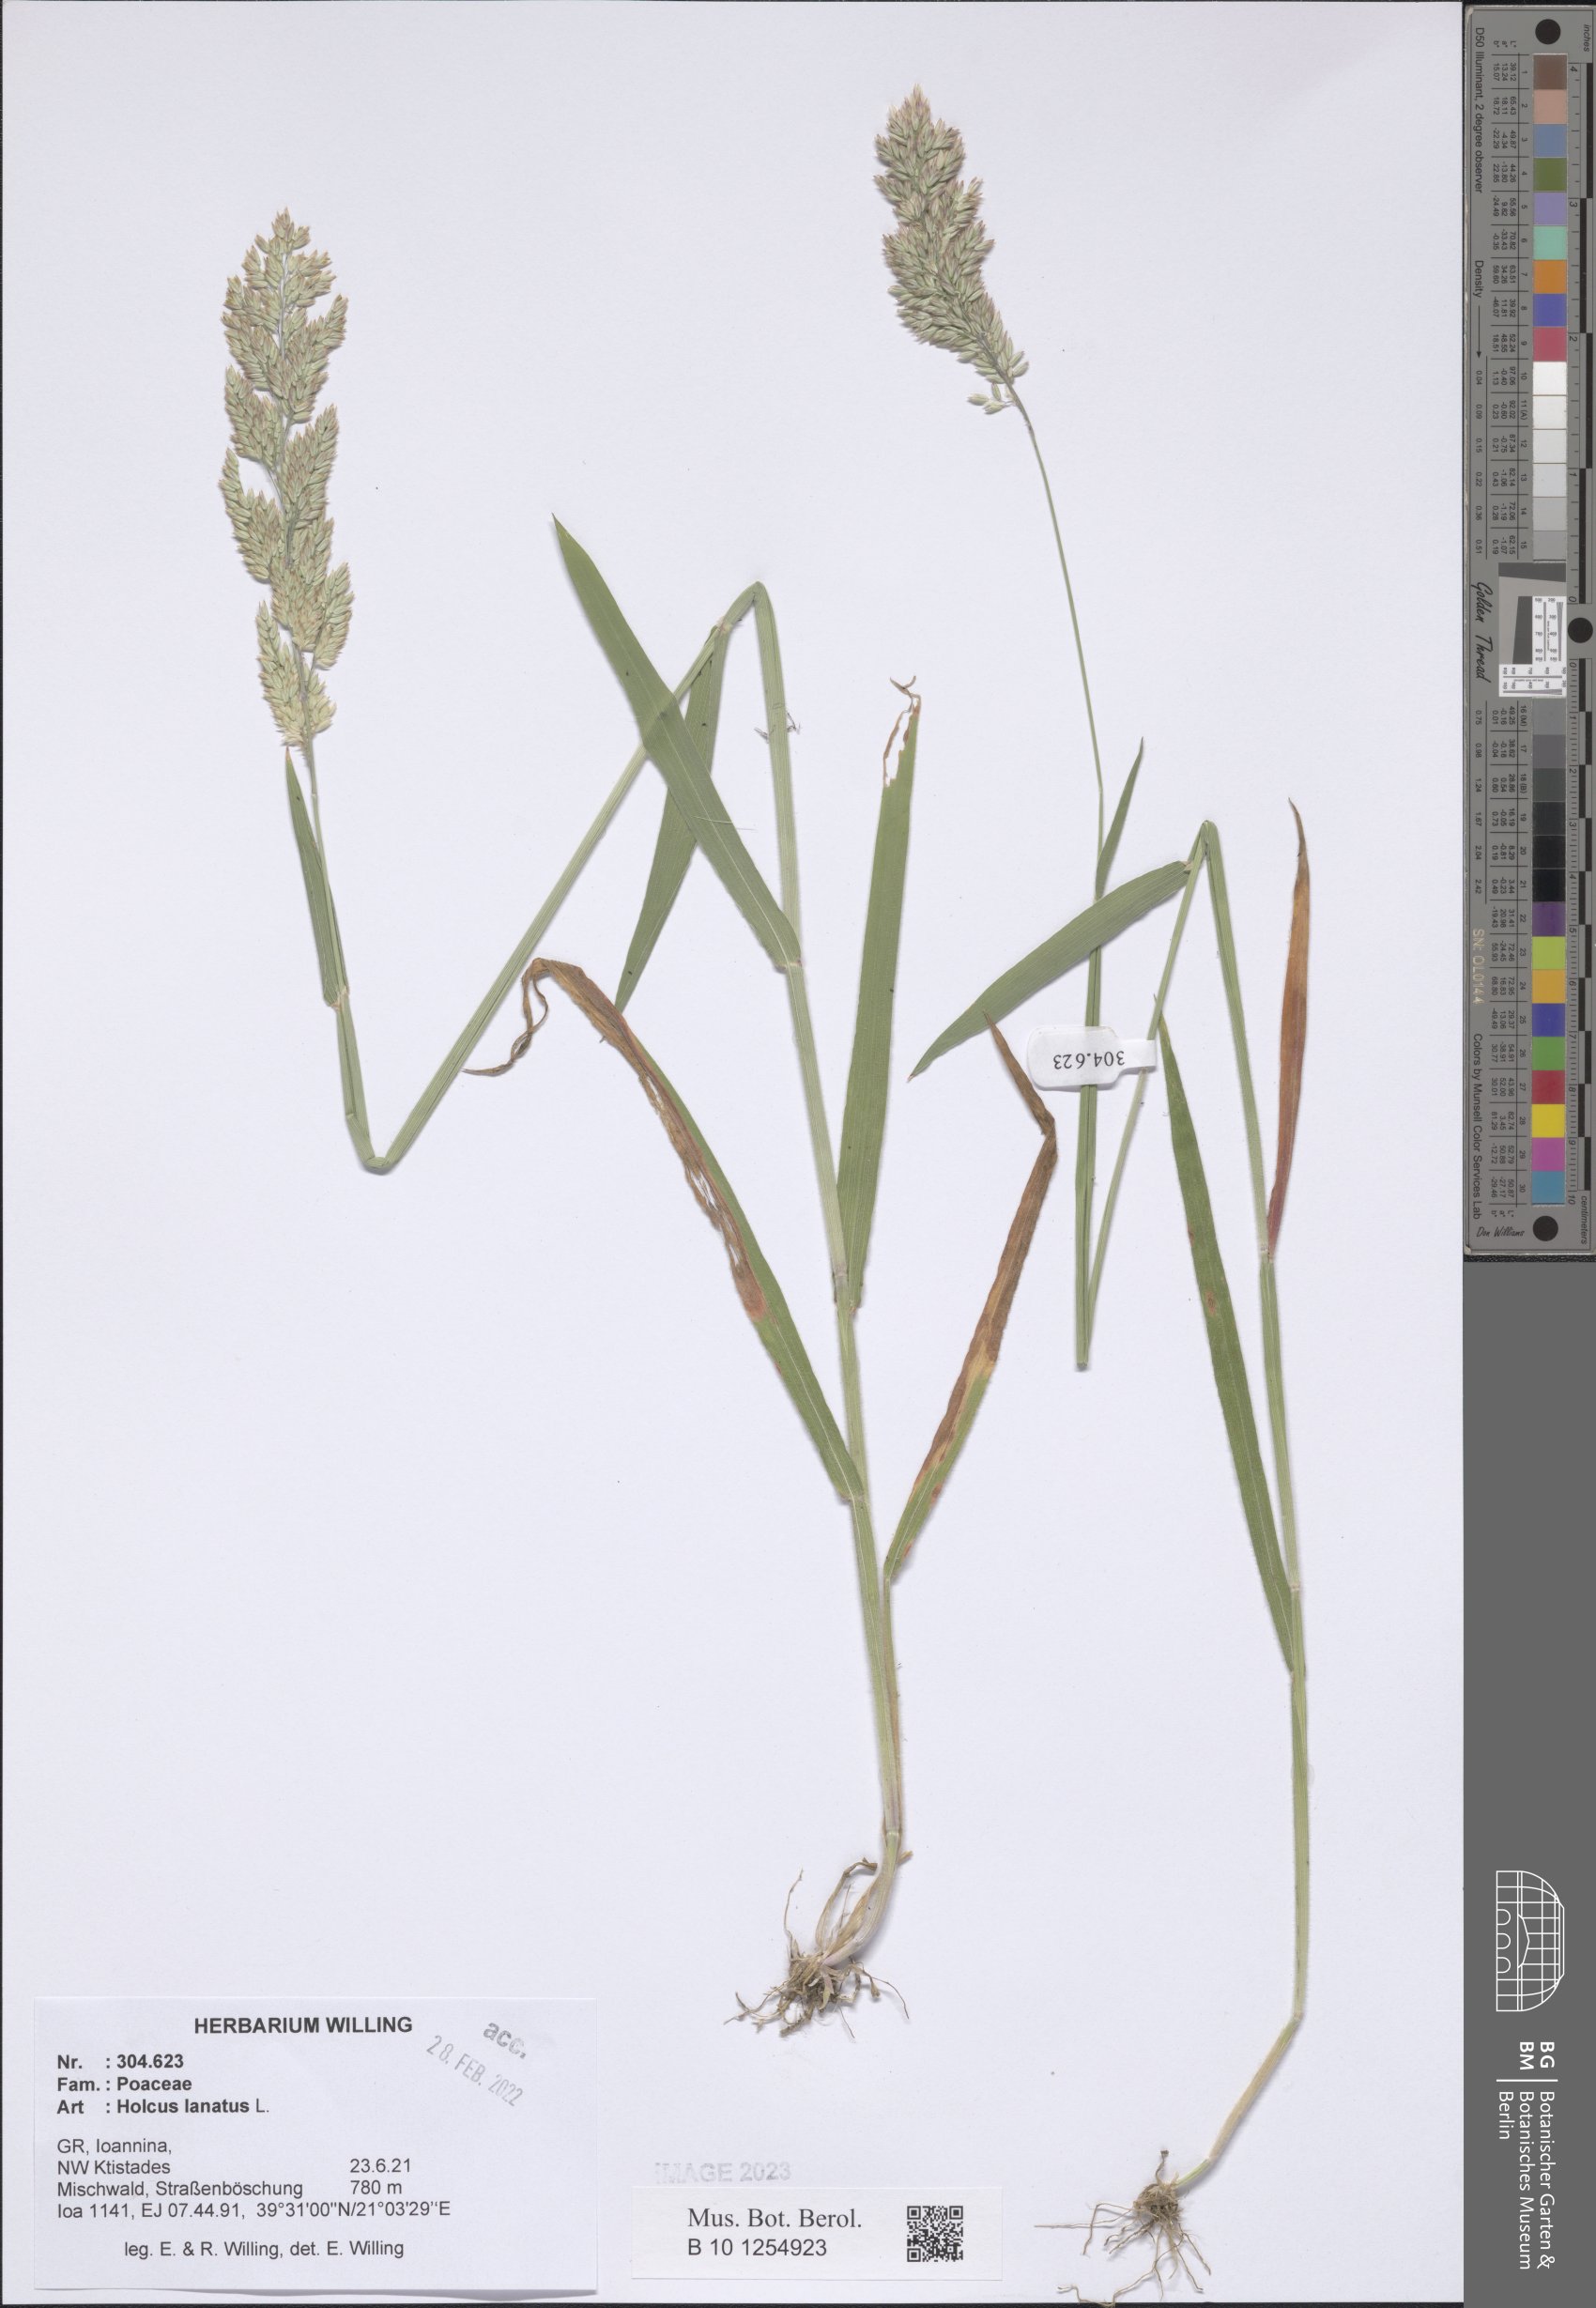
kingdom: Plantae
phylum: Tracheophyta
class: Liliopsida
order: Poales
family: Poaceae
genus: Holcus
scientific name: Holcus lanatus
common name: Yorkshire-fog
